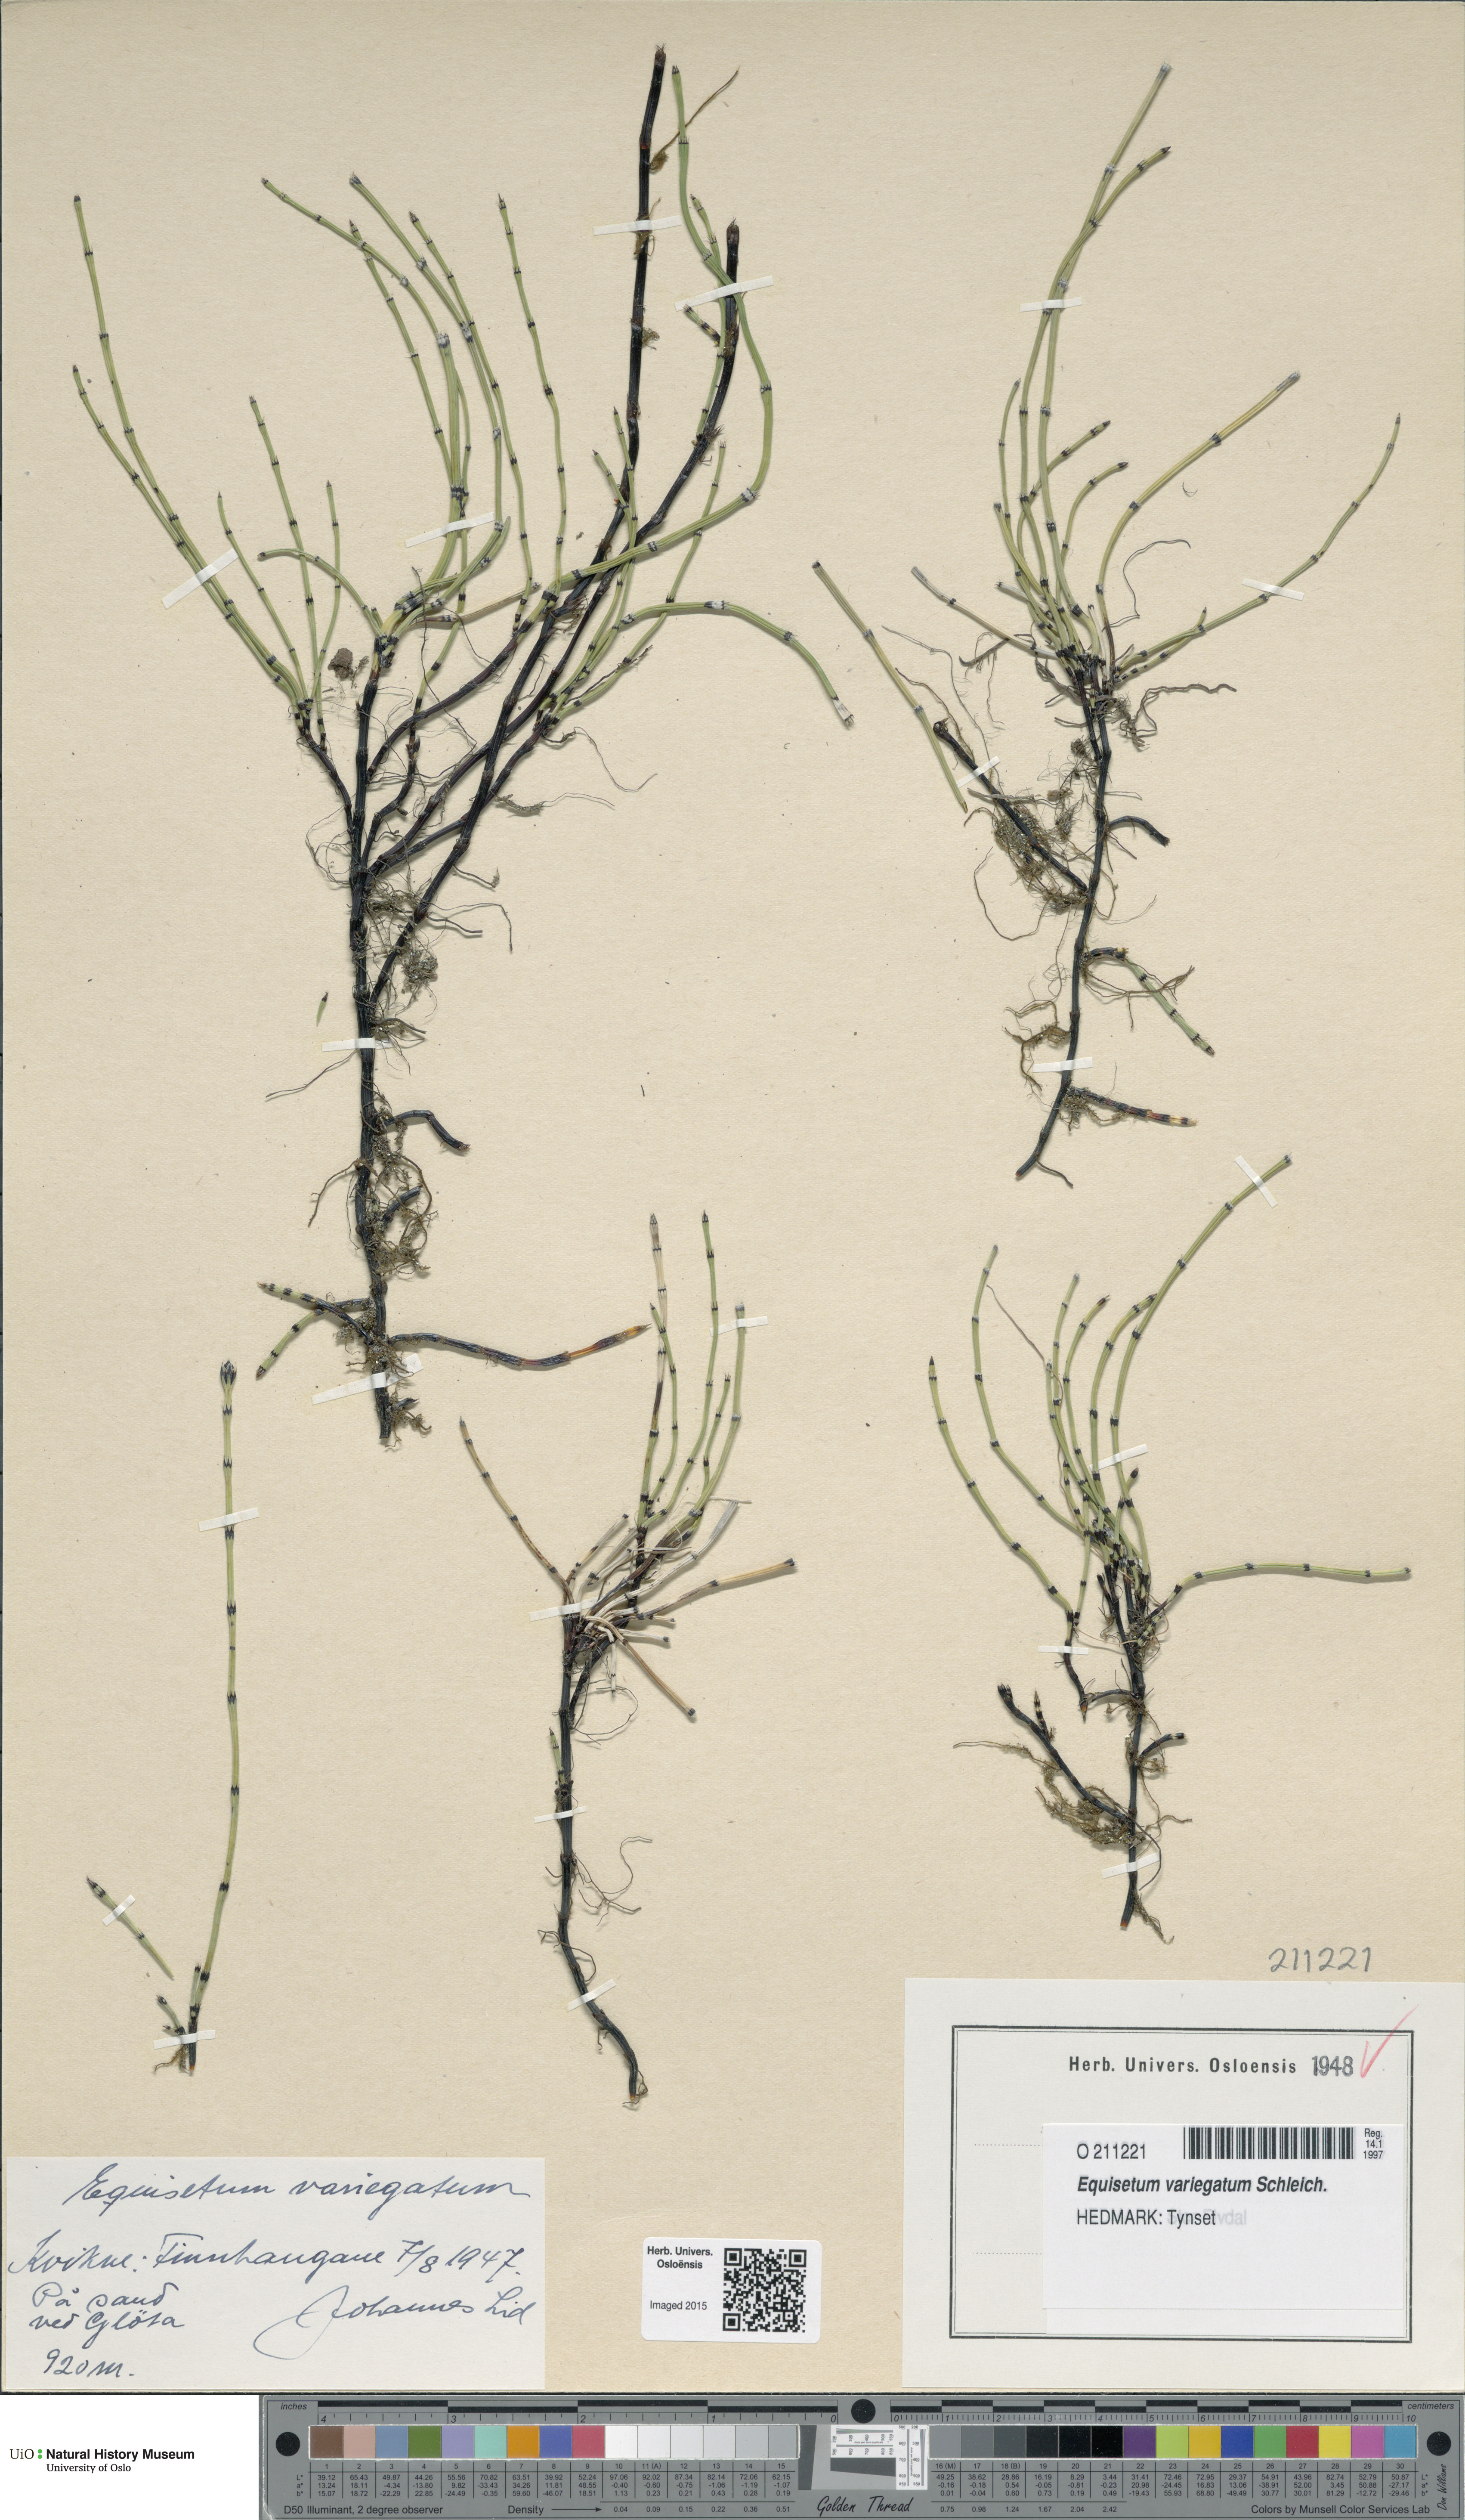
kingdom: Plantae
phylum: Tracheophyta
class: Polypodiopsida
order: Equisetales
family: Equisetaceae
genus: Equisetum
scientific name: Equisetum variegatum
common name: Variegated horsetail
